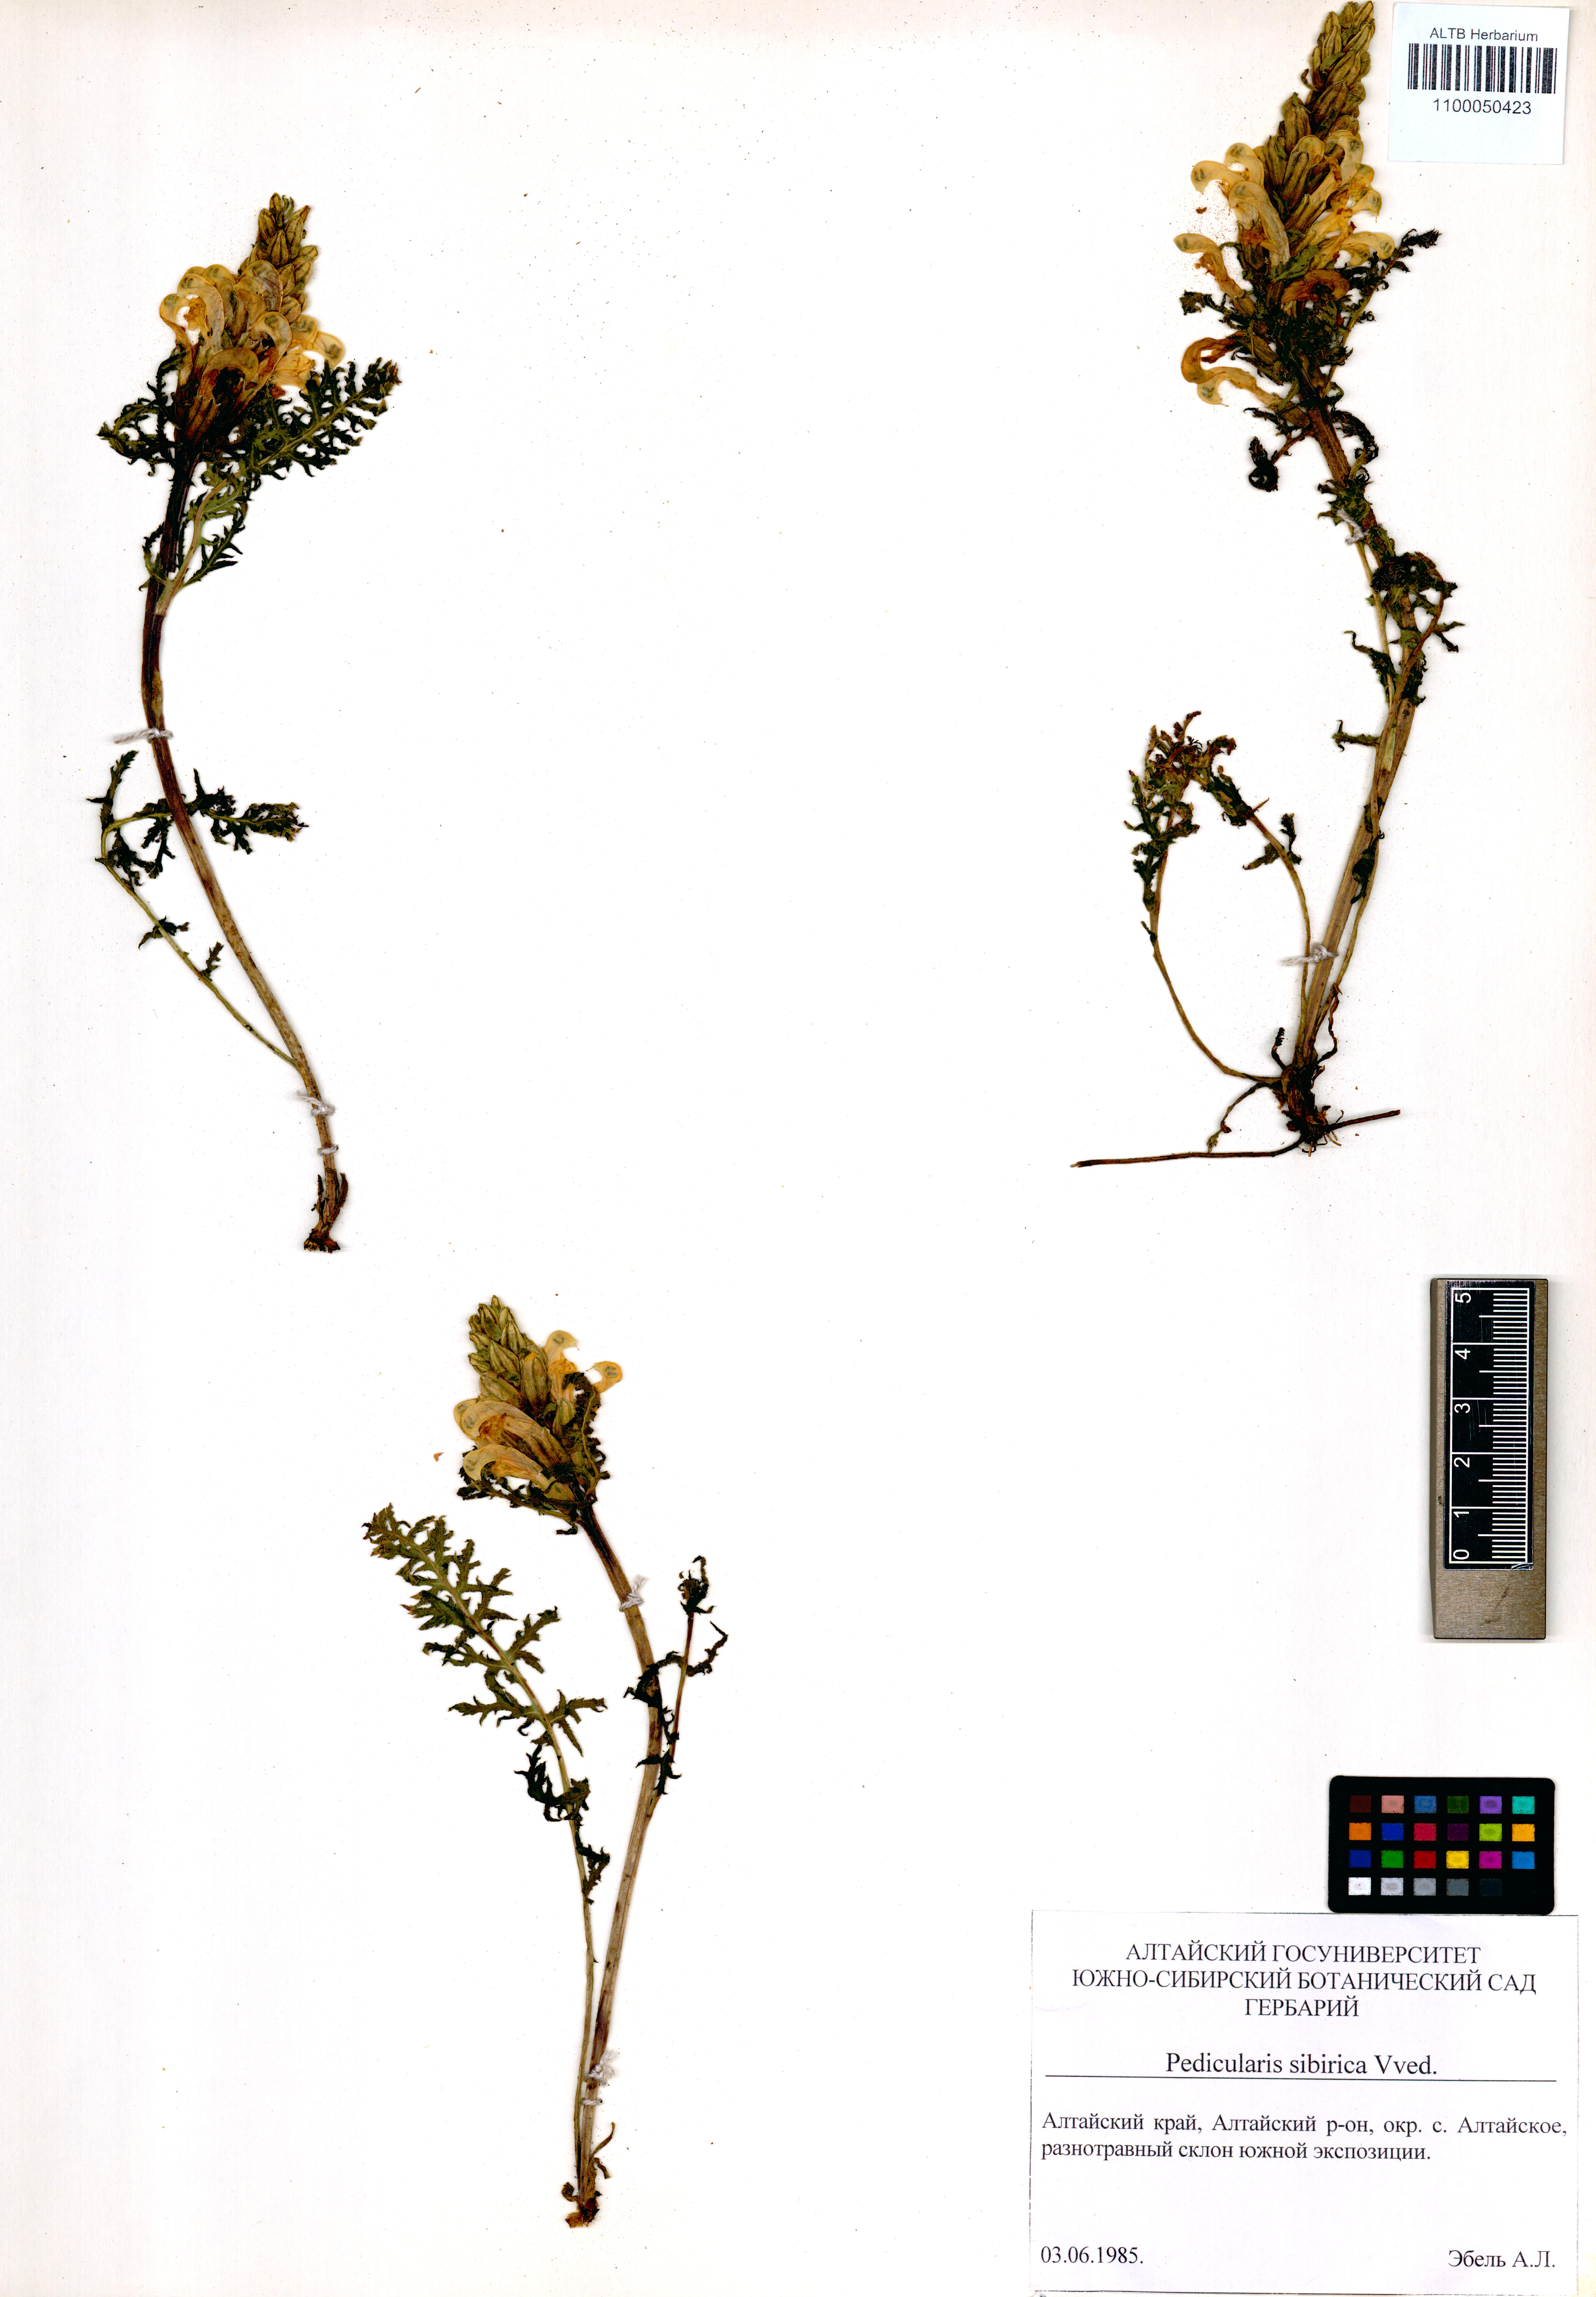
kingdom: Plantae
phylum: Tracheophyta
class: Magnoliopsida
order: Lamiales
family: Orobanchaceae
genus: Pedicularis
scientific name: Pedicularis sibirica
